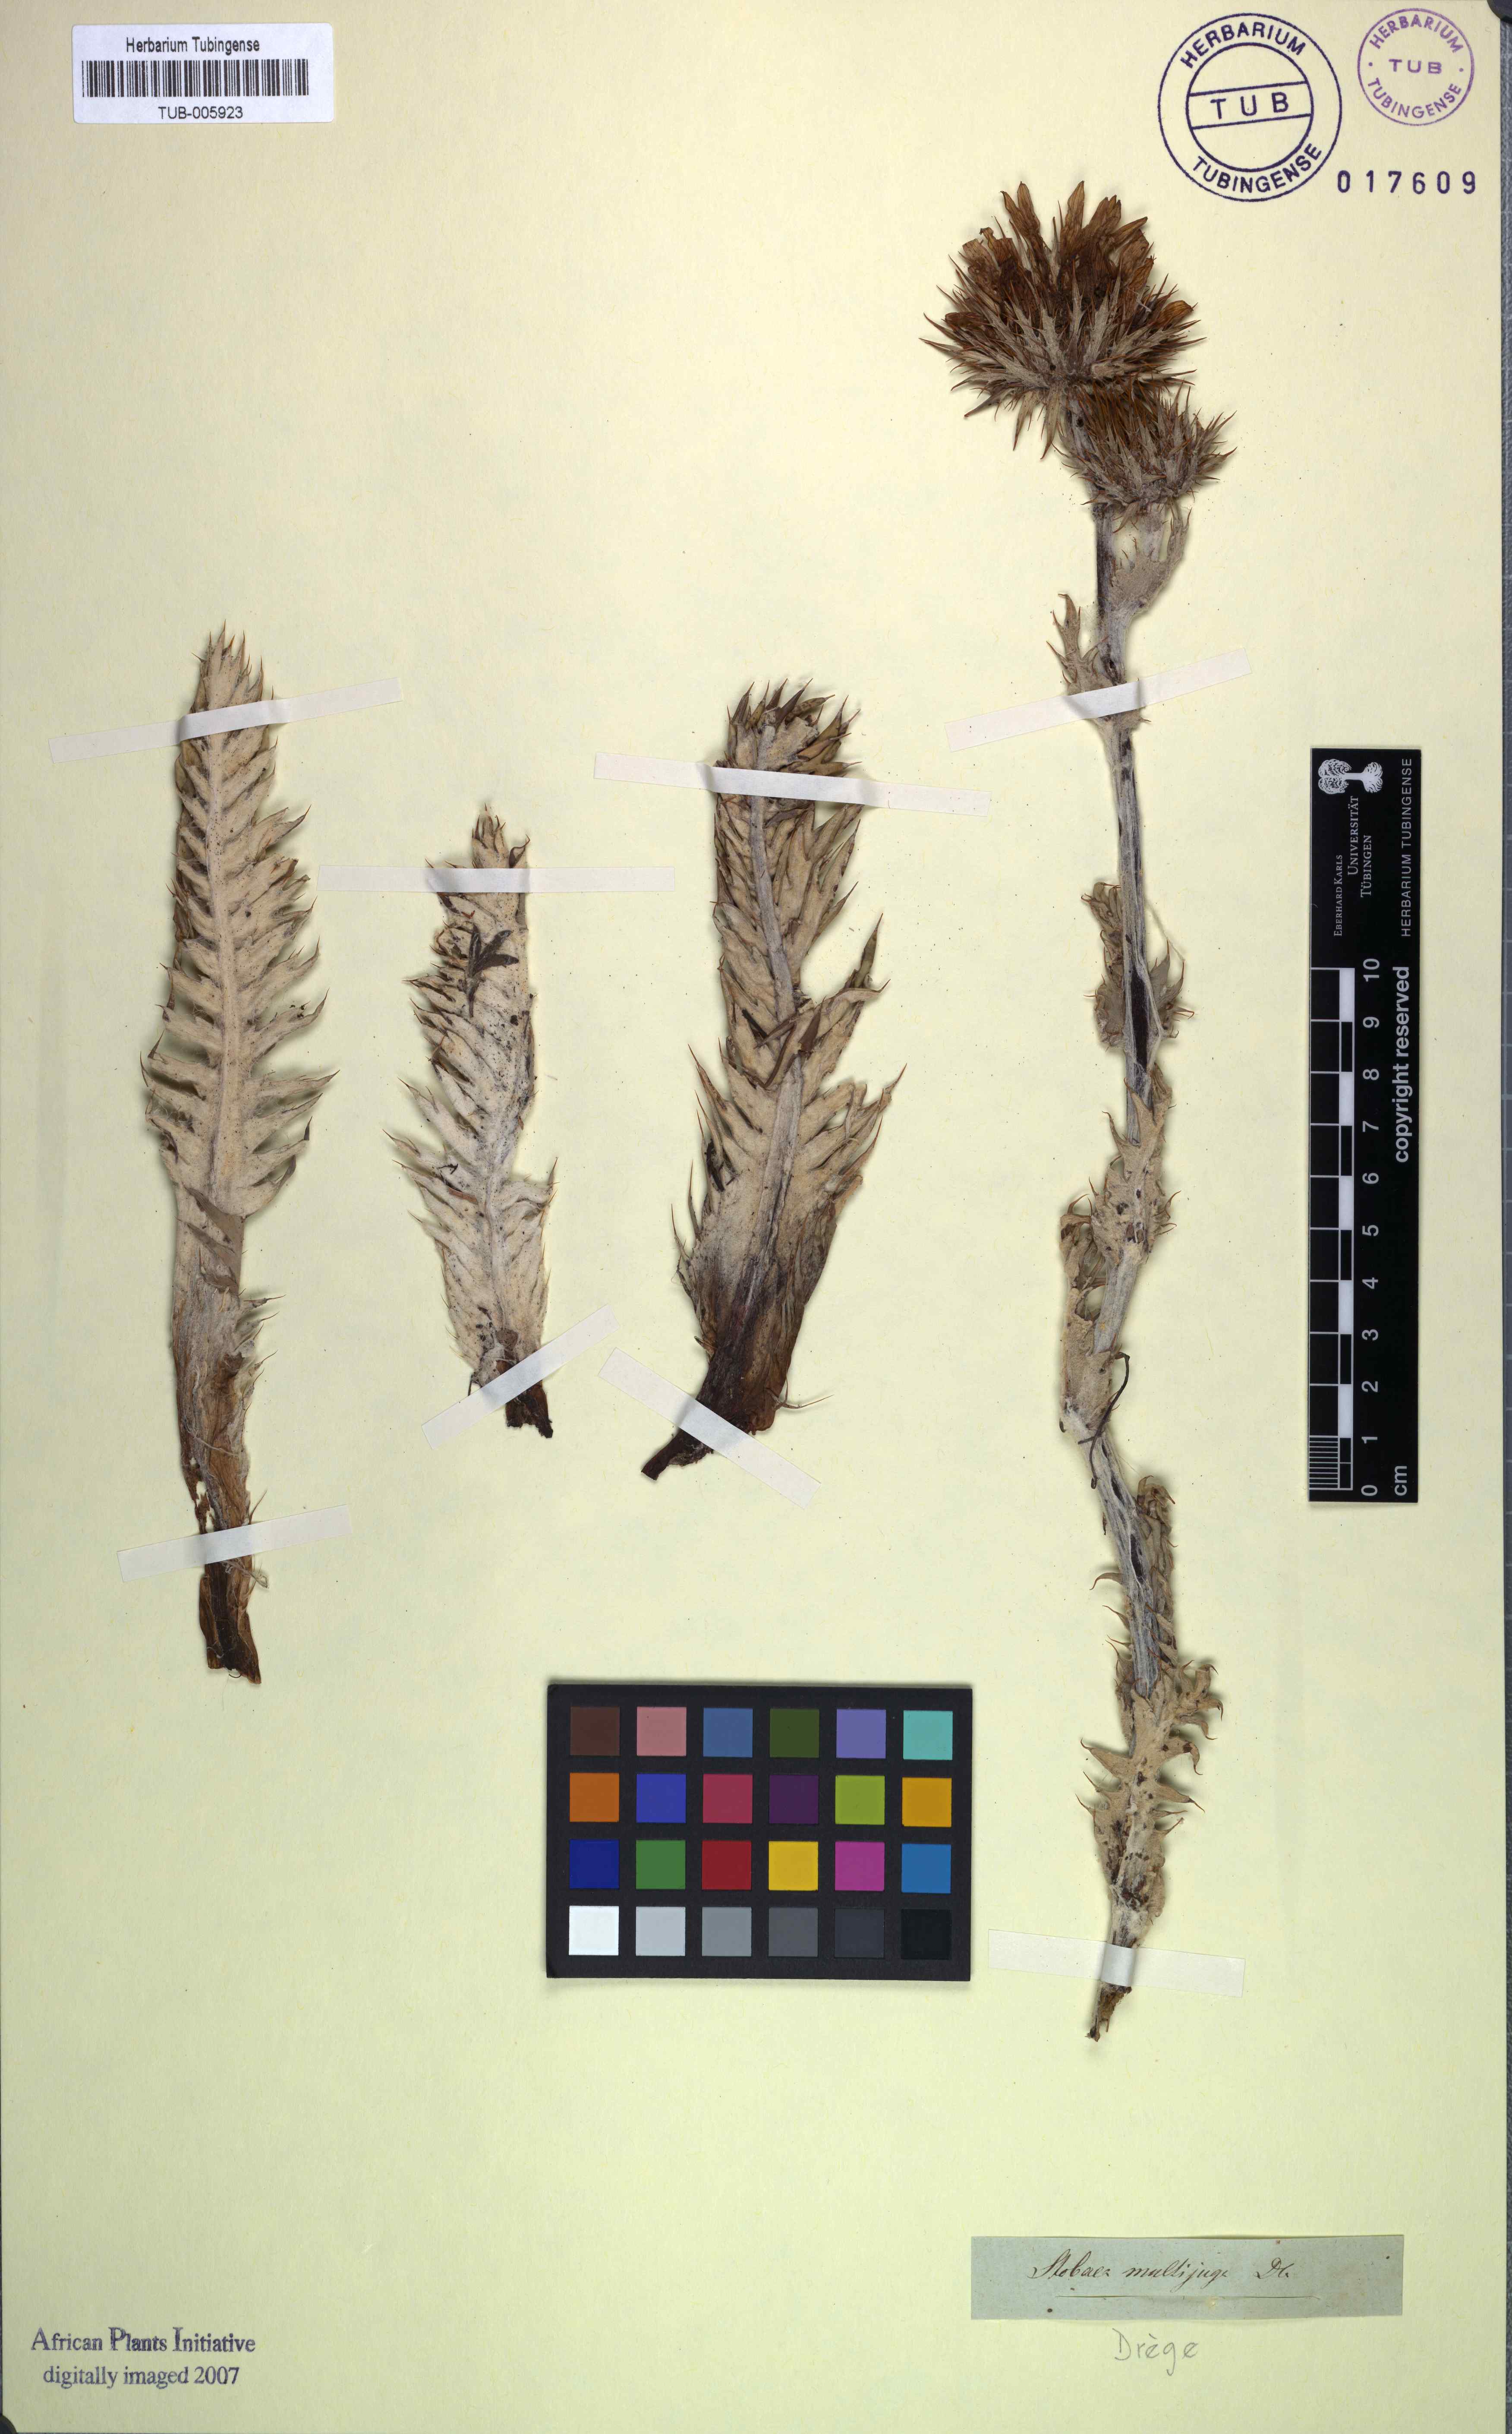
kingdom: Plantae
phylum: Tracheophyta
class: Magnoliopsida
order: Asterales
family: Asteraceae
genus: Berkheya
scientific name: Berkheya multijuga
